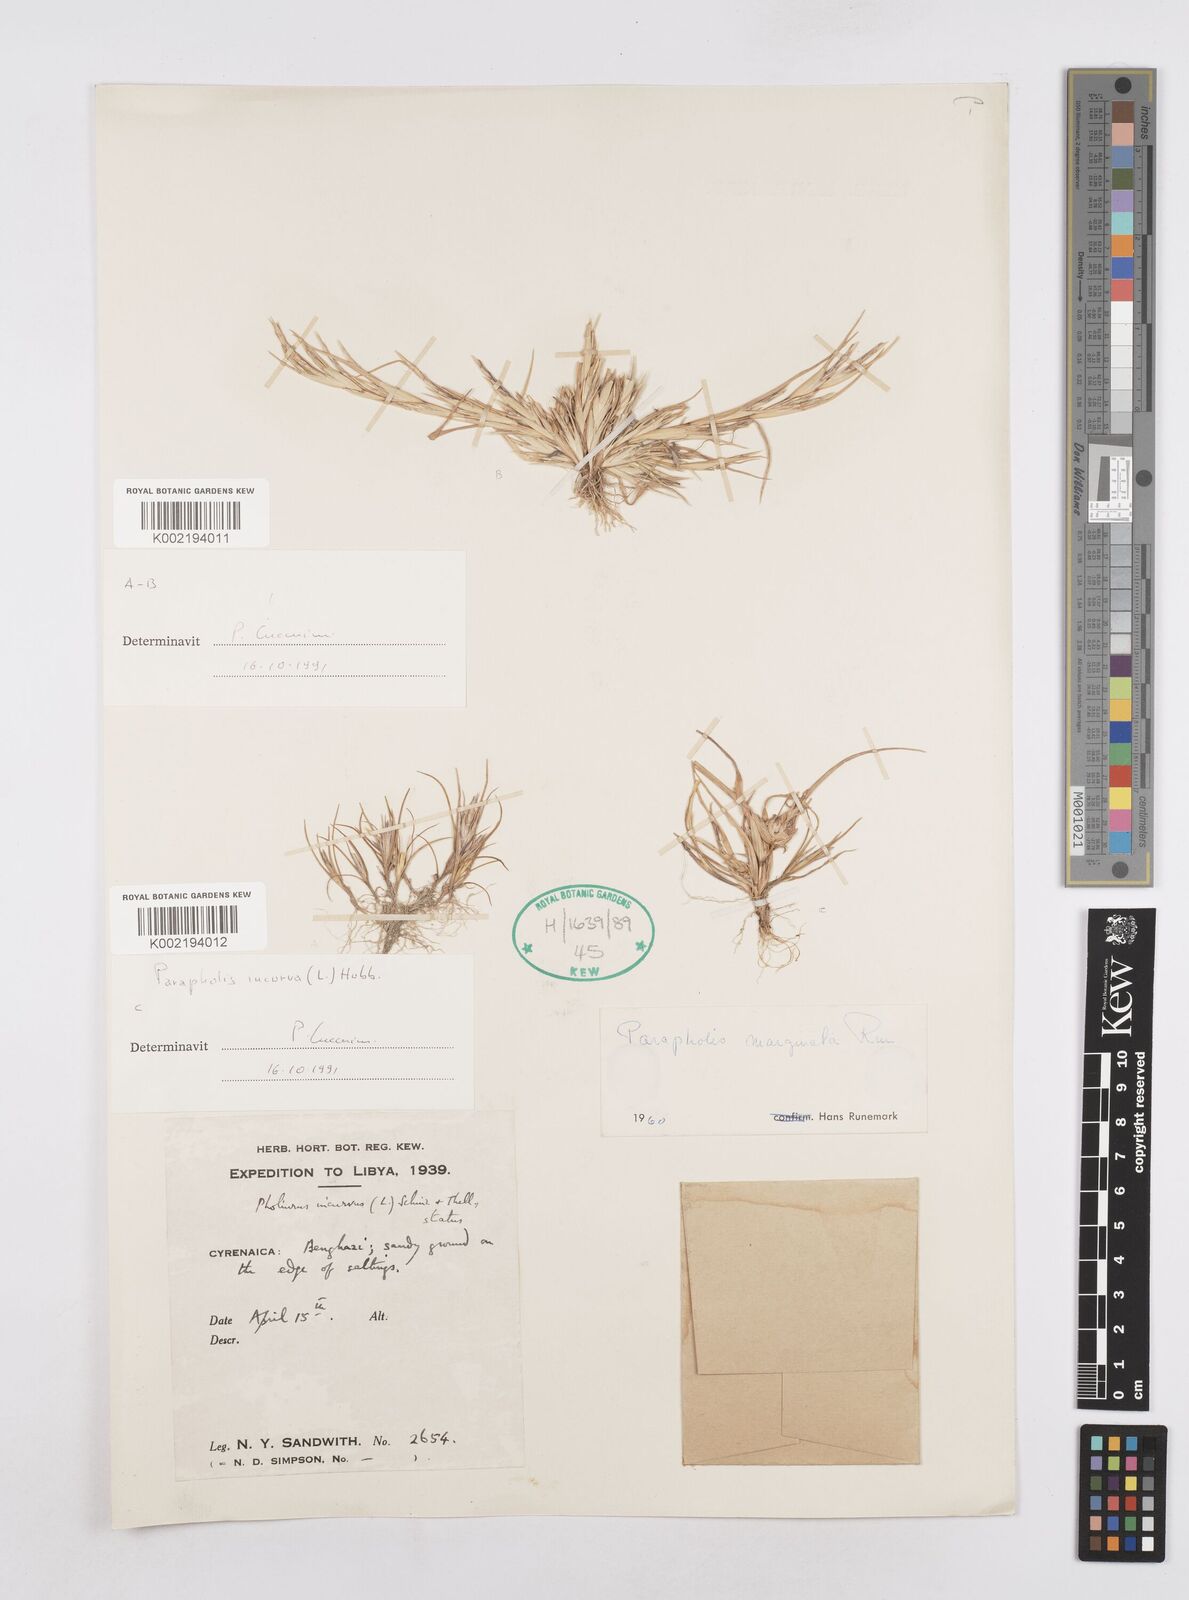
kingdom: Plantae
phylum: Tracheophyta
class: Liliopsida
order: Poales
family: Poaceae
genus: Parapholis
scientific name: Parapholis marginata
